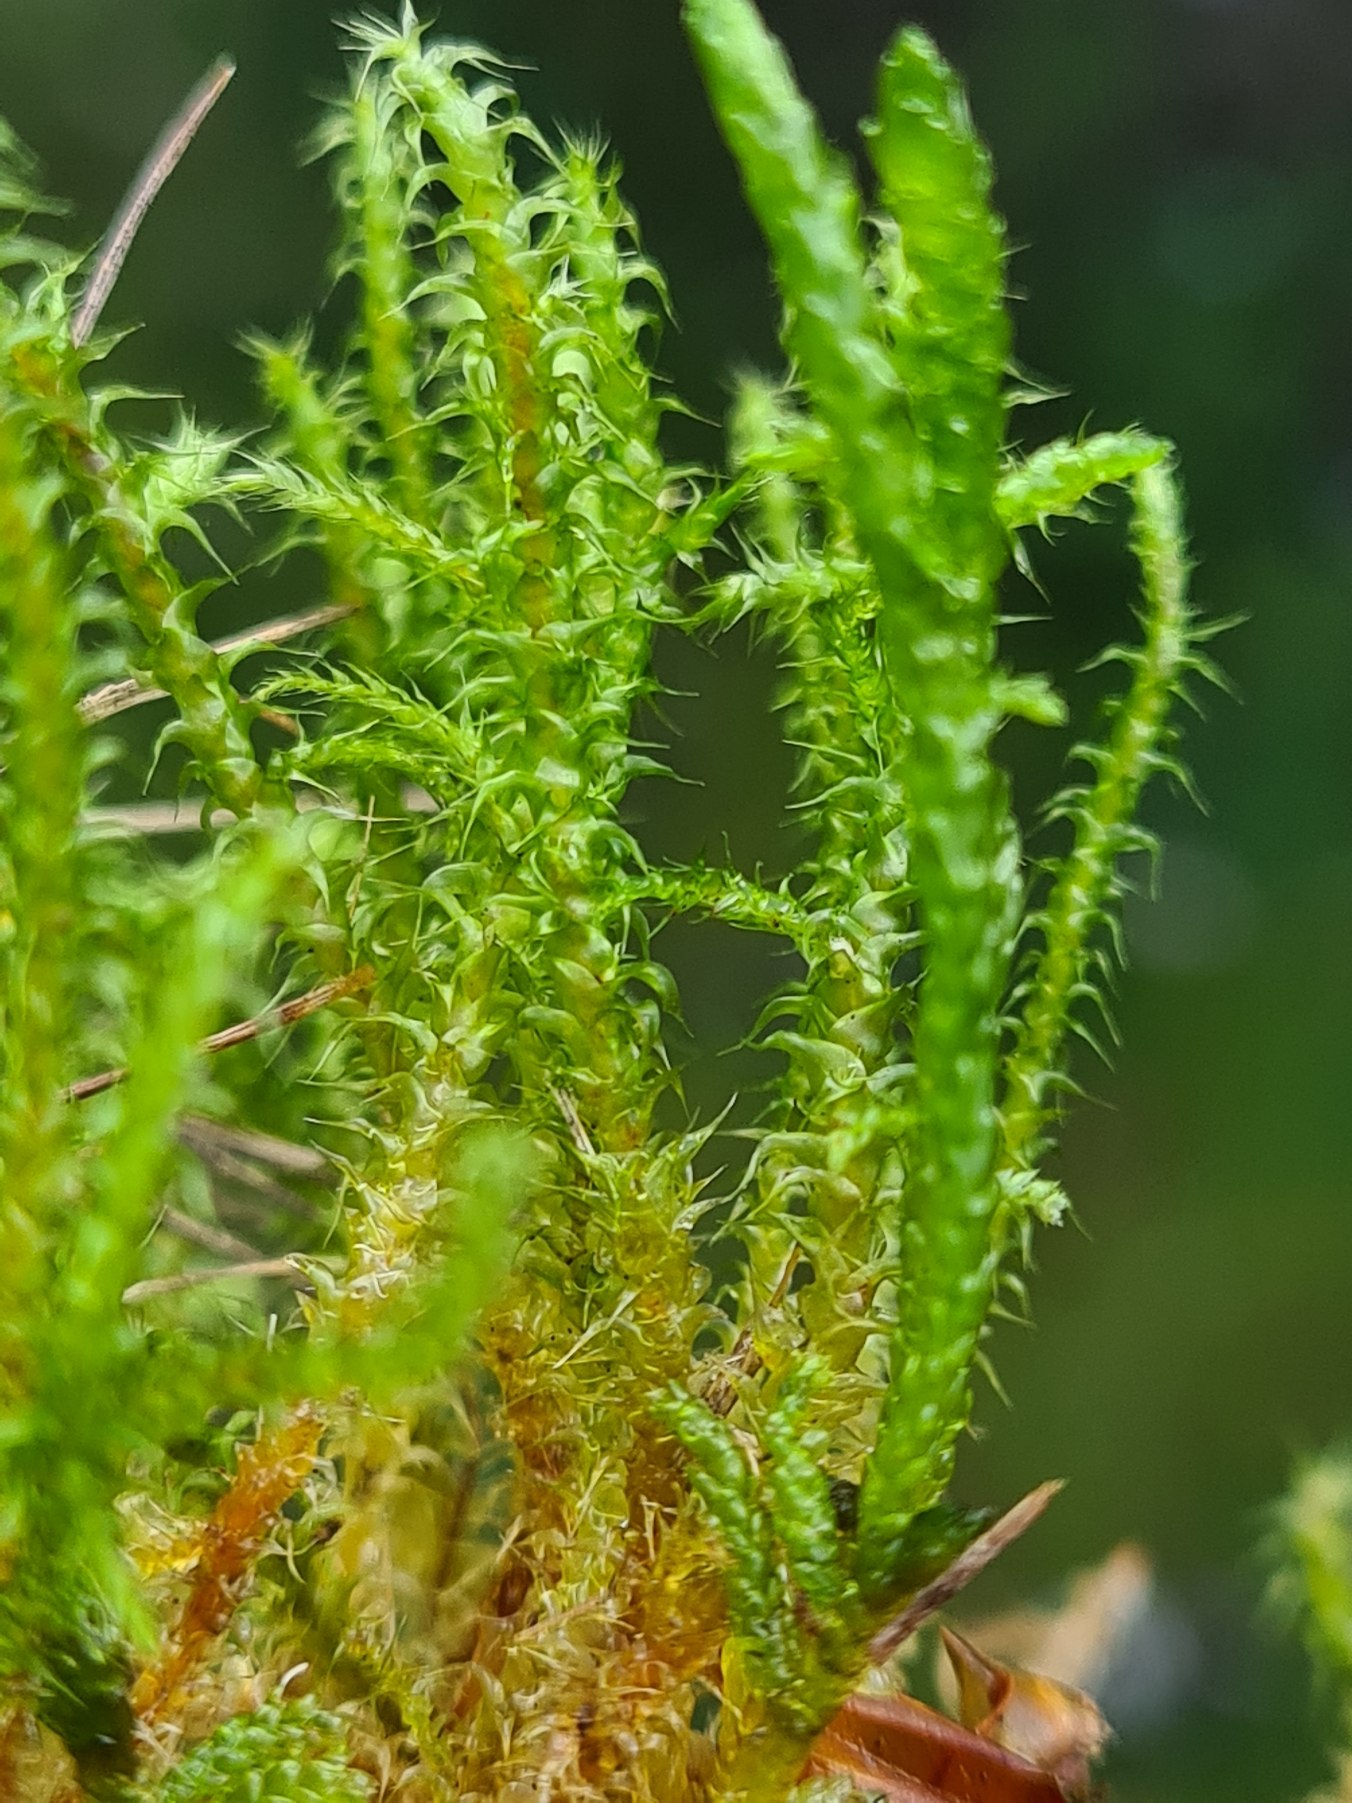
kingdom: Plantae
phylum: Bryophyta
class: Bryopsida
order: Hypnales
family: Hylocomiaceae
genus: Rhytidiadelphus
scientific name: Rhytidiadelphus squarrosus
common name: Plæne-kransemos
